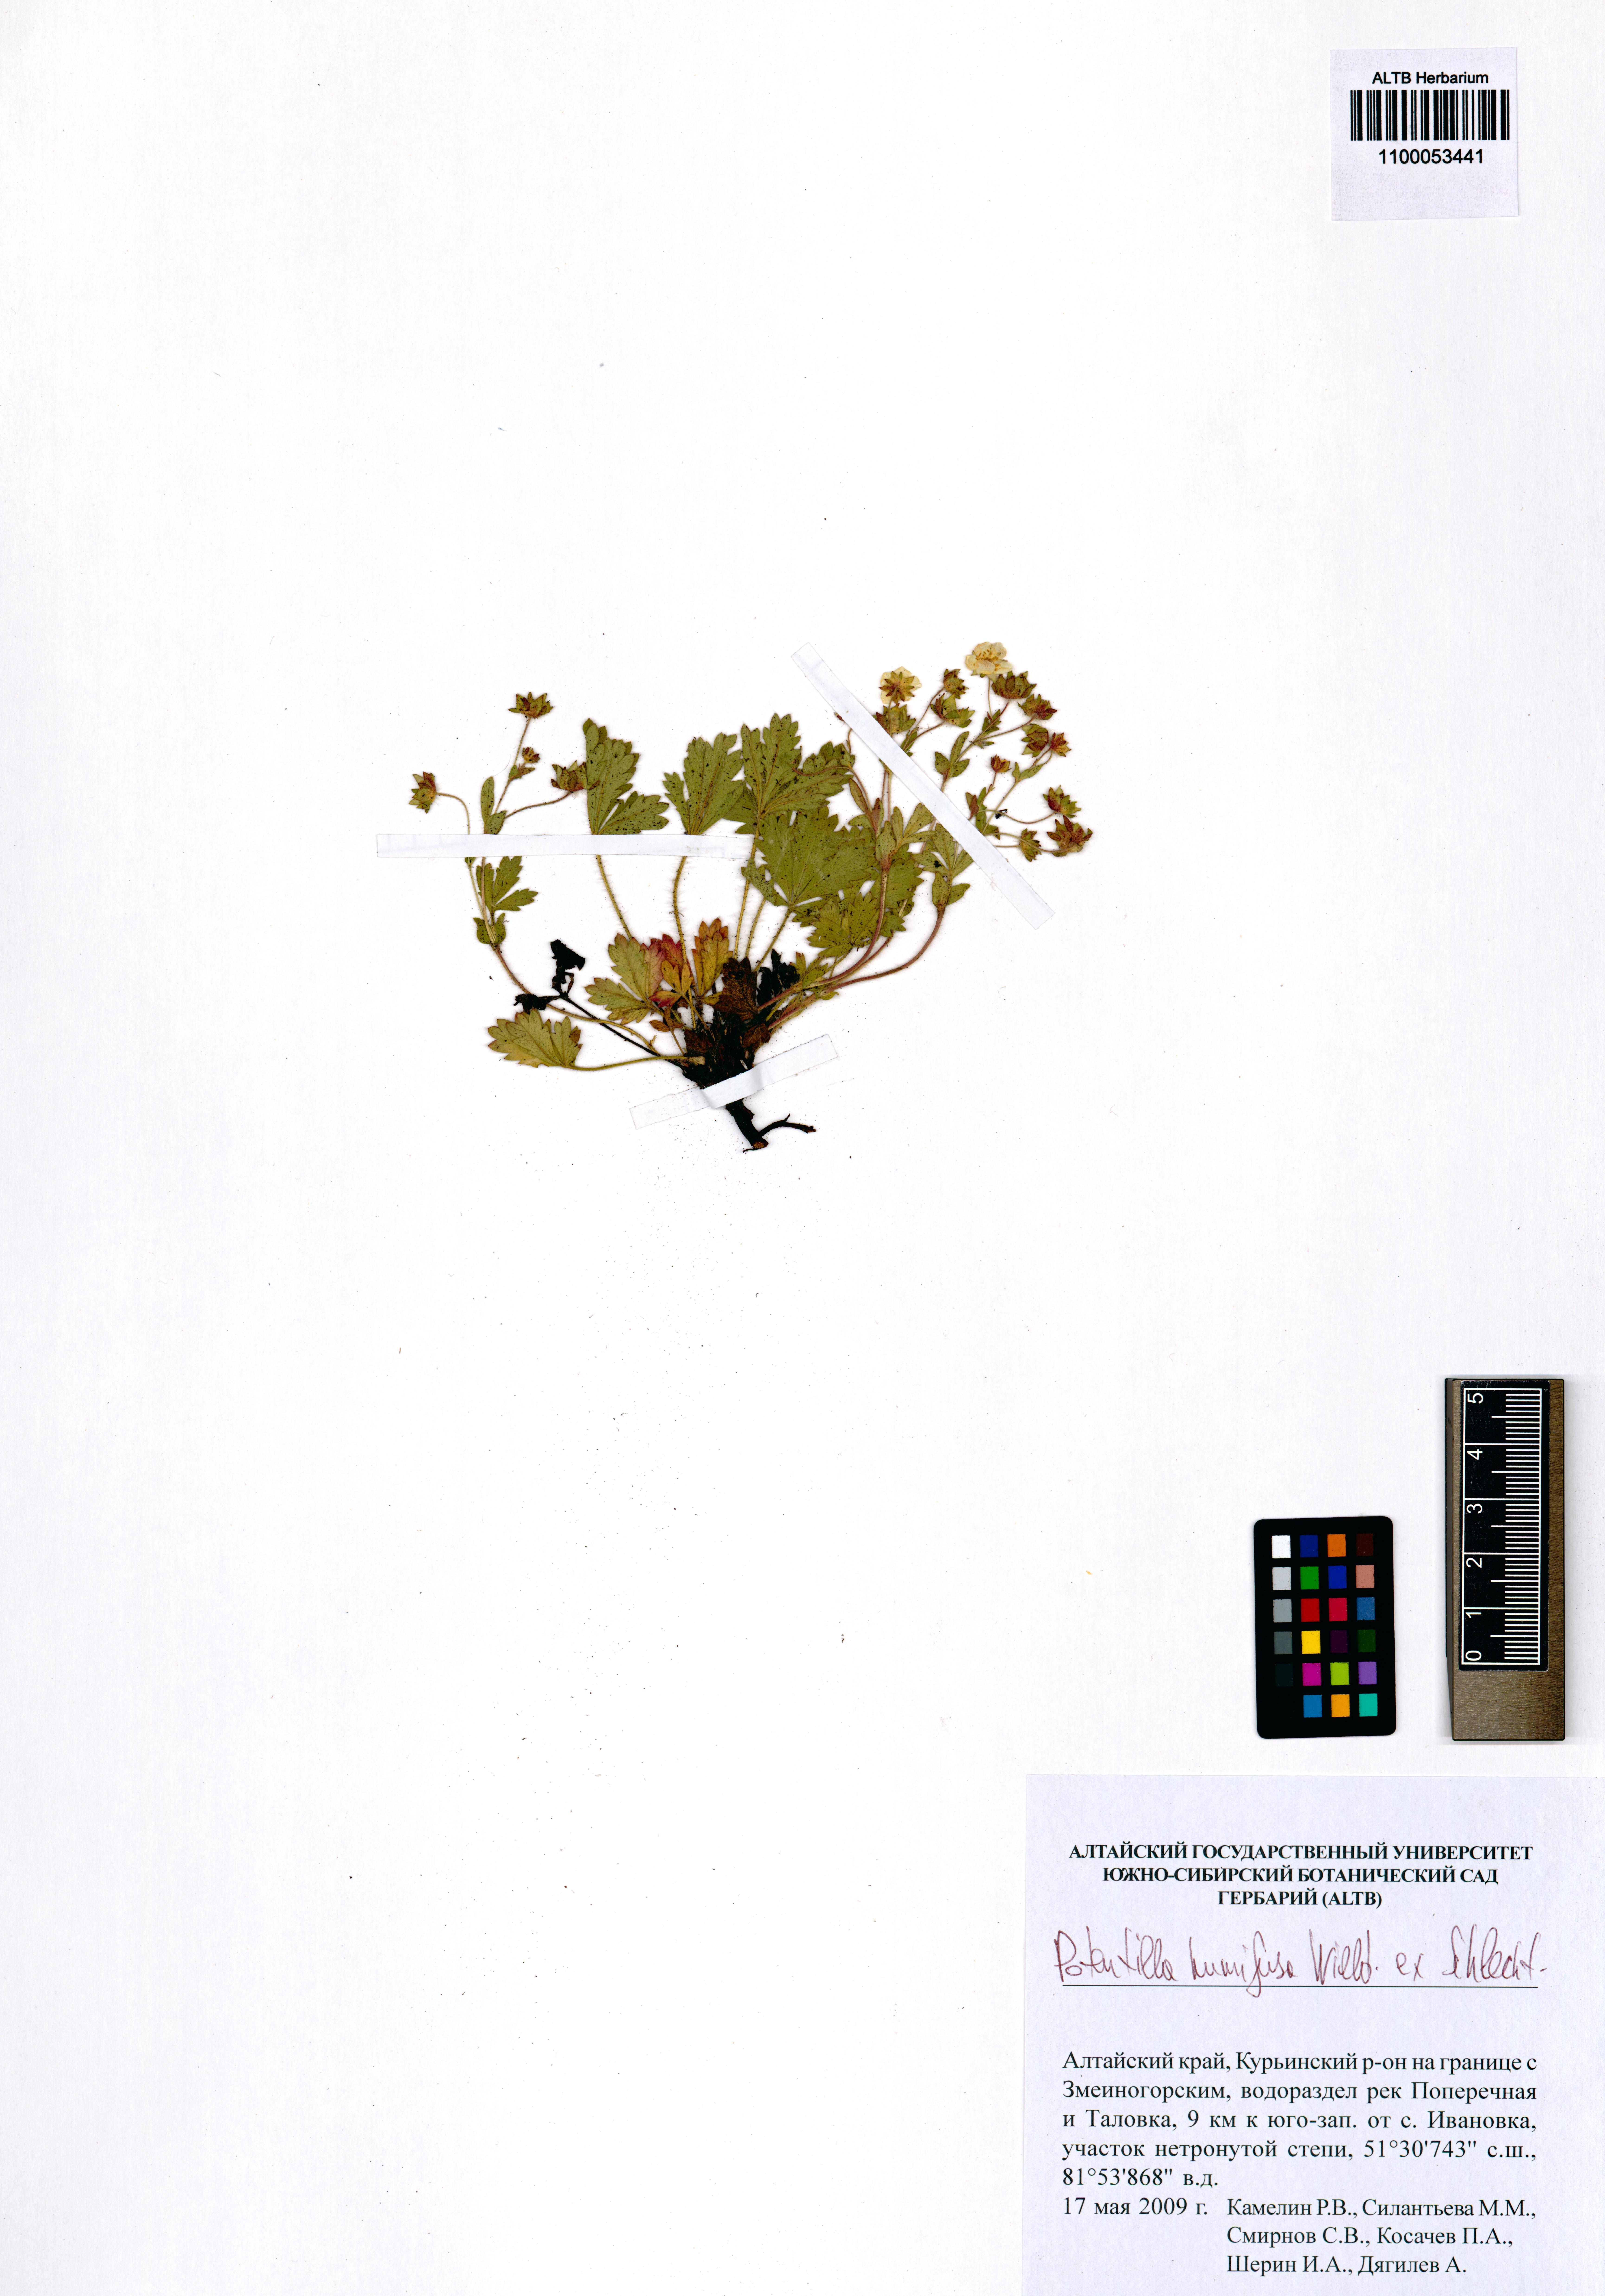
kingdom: Plantae
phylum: Tracheophyta
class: Magnoliopsida
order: Rosales
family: Rosaceae
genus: Potentilla
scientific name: Potentilla humifusa
